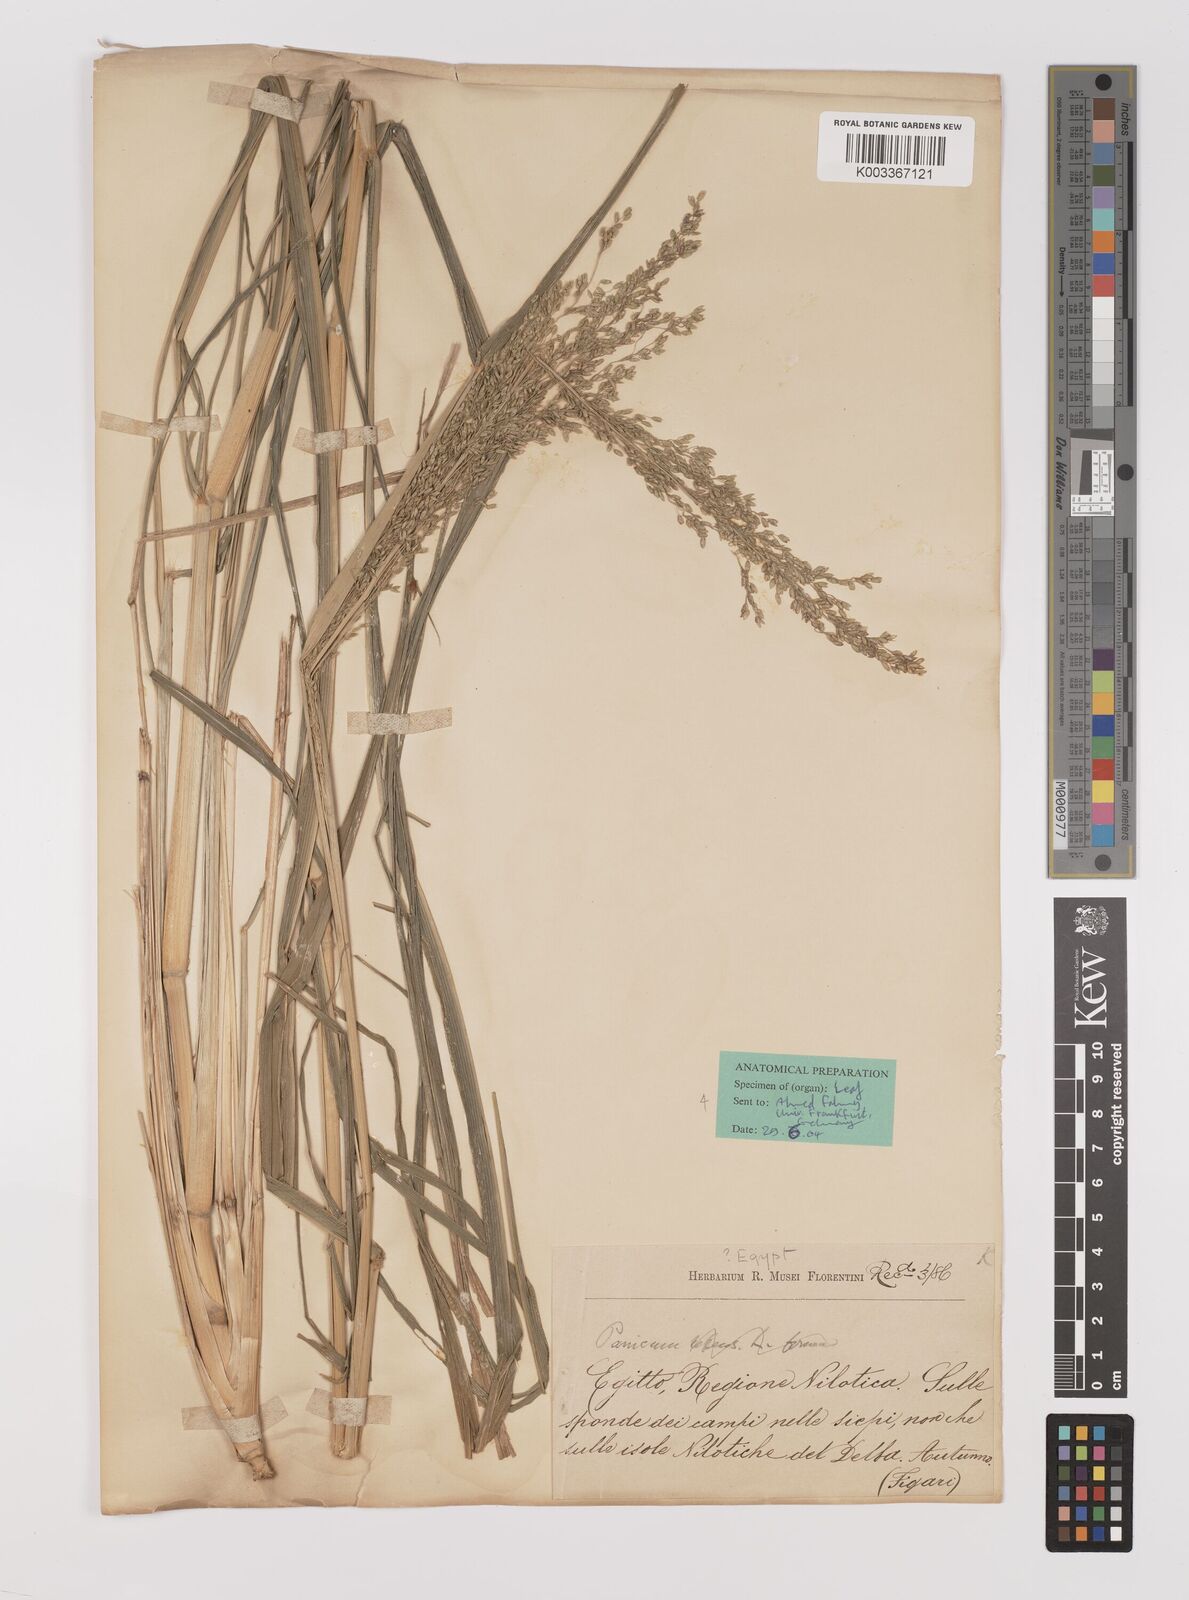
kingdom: Plantae
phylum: Tracheophyta
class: Liliopsida
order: Poales
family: Poaceae
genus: Megathyrsus
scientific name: Megathyrsus maximus
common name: Guineagrass
